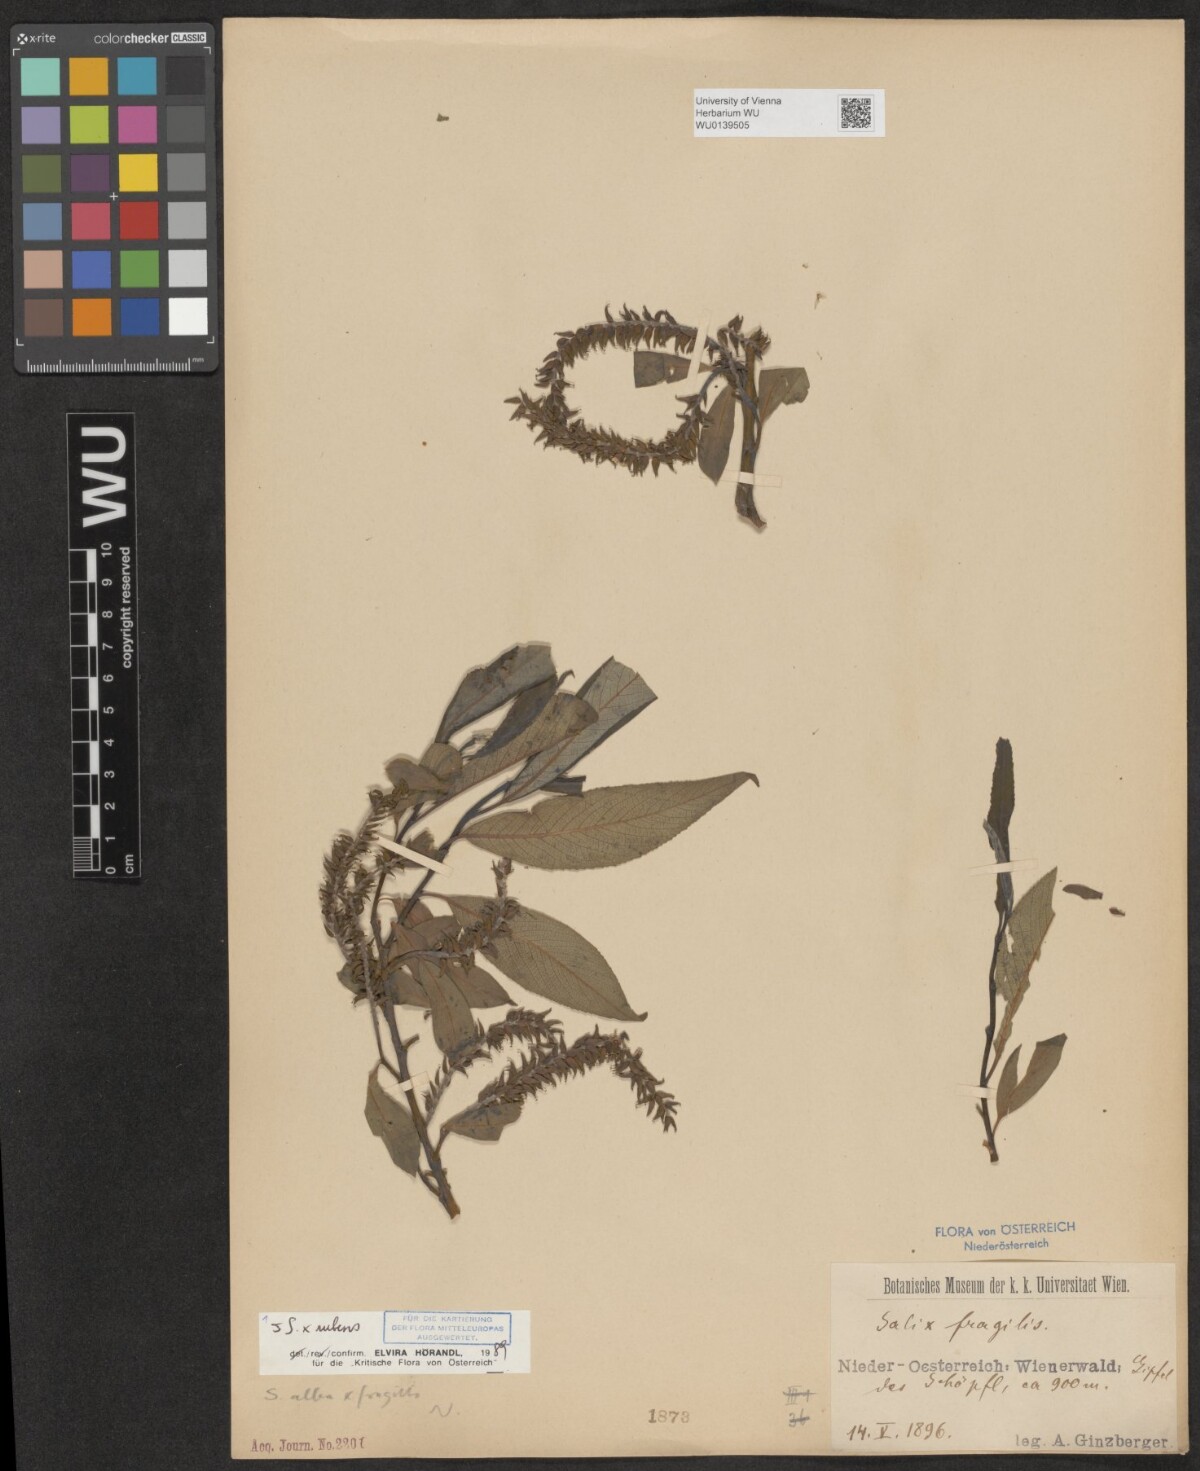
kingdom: Plantae
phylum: Tracheophyta
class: Magnoliopsida
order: Malpighiales
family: Salicaceae
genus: Salix
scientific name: Salix rubens
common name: Hybrid crack willow
